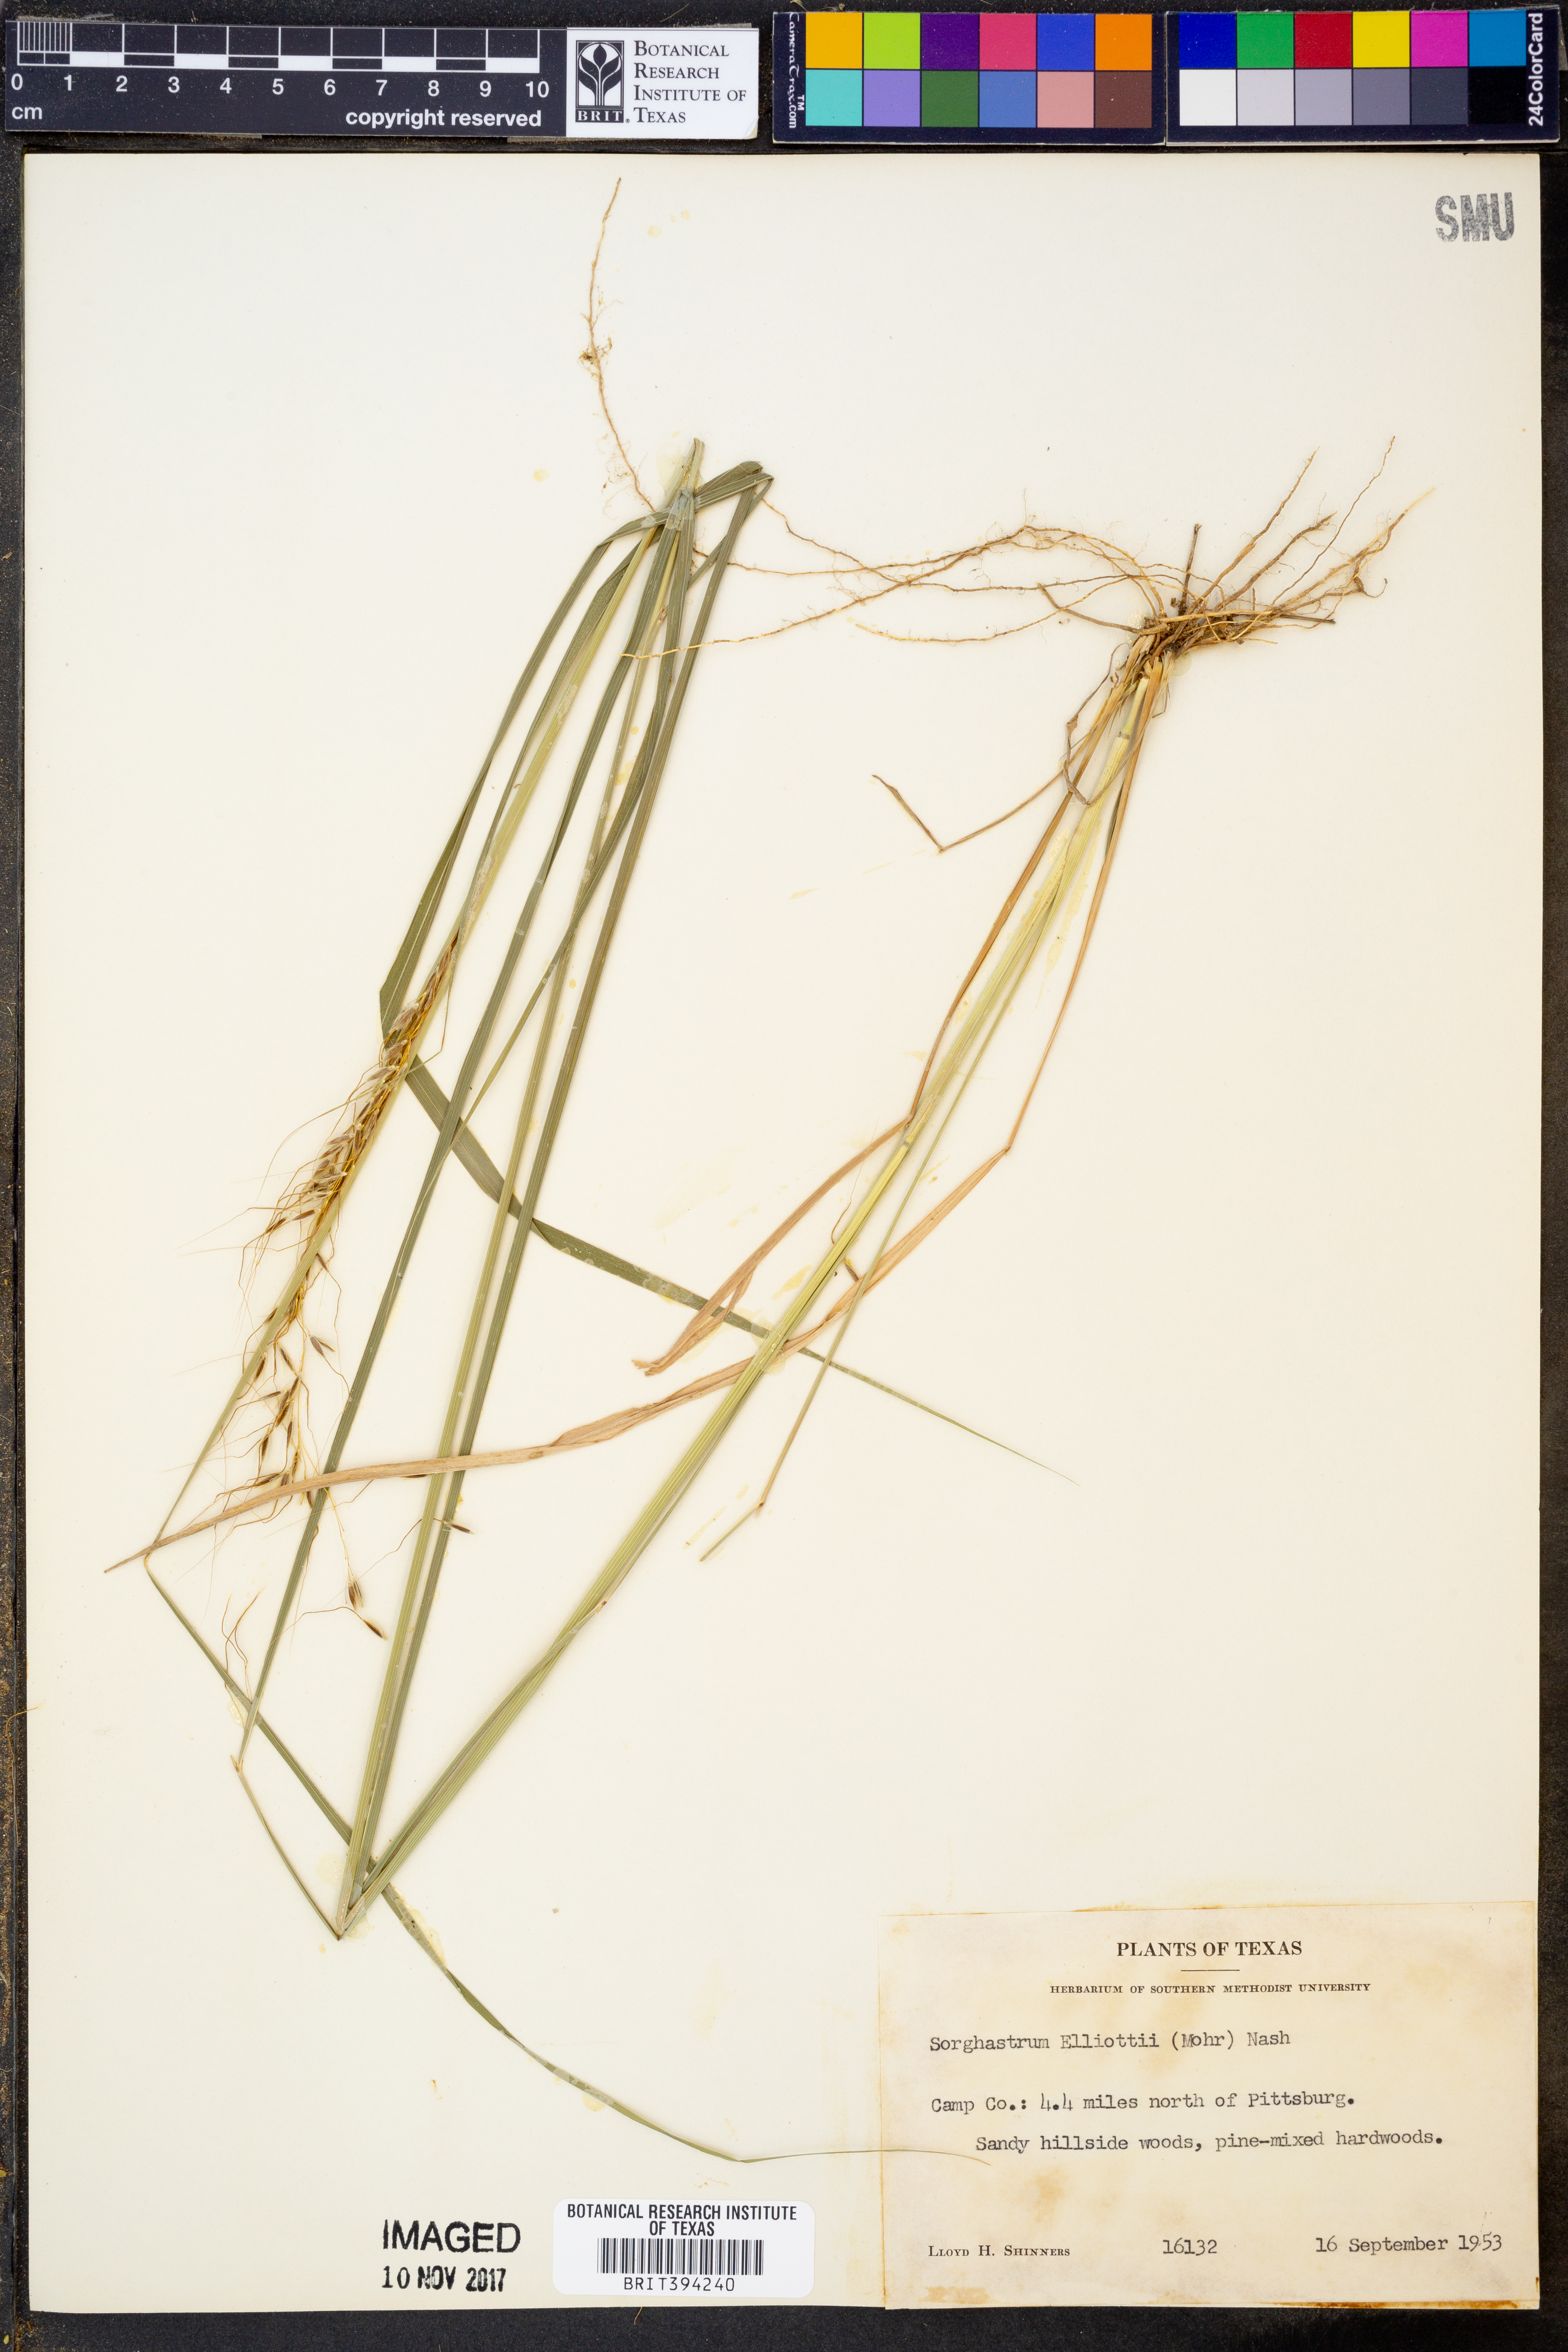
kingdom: Plantae
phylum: Tracheophyta
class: Liliopsida
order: Poales
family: Poaceae
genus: Sorghastrum
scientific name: Sorghastrum elliottii
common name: Slender indian grass
